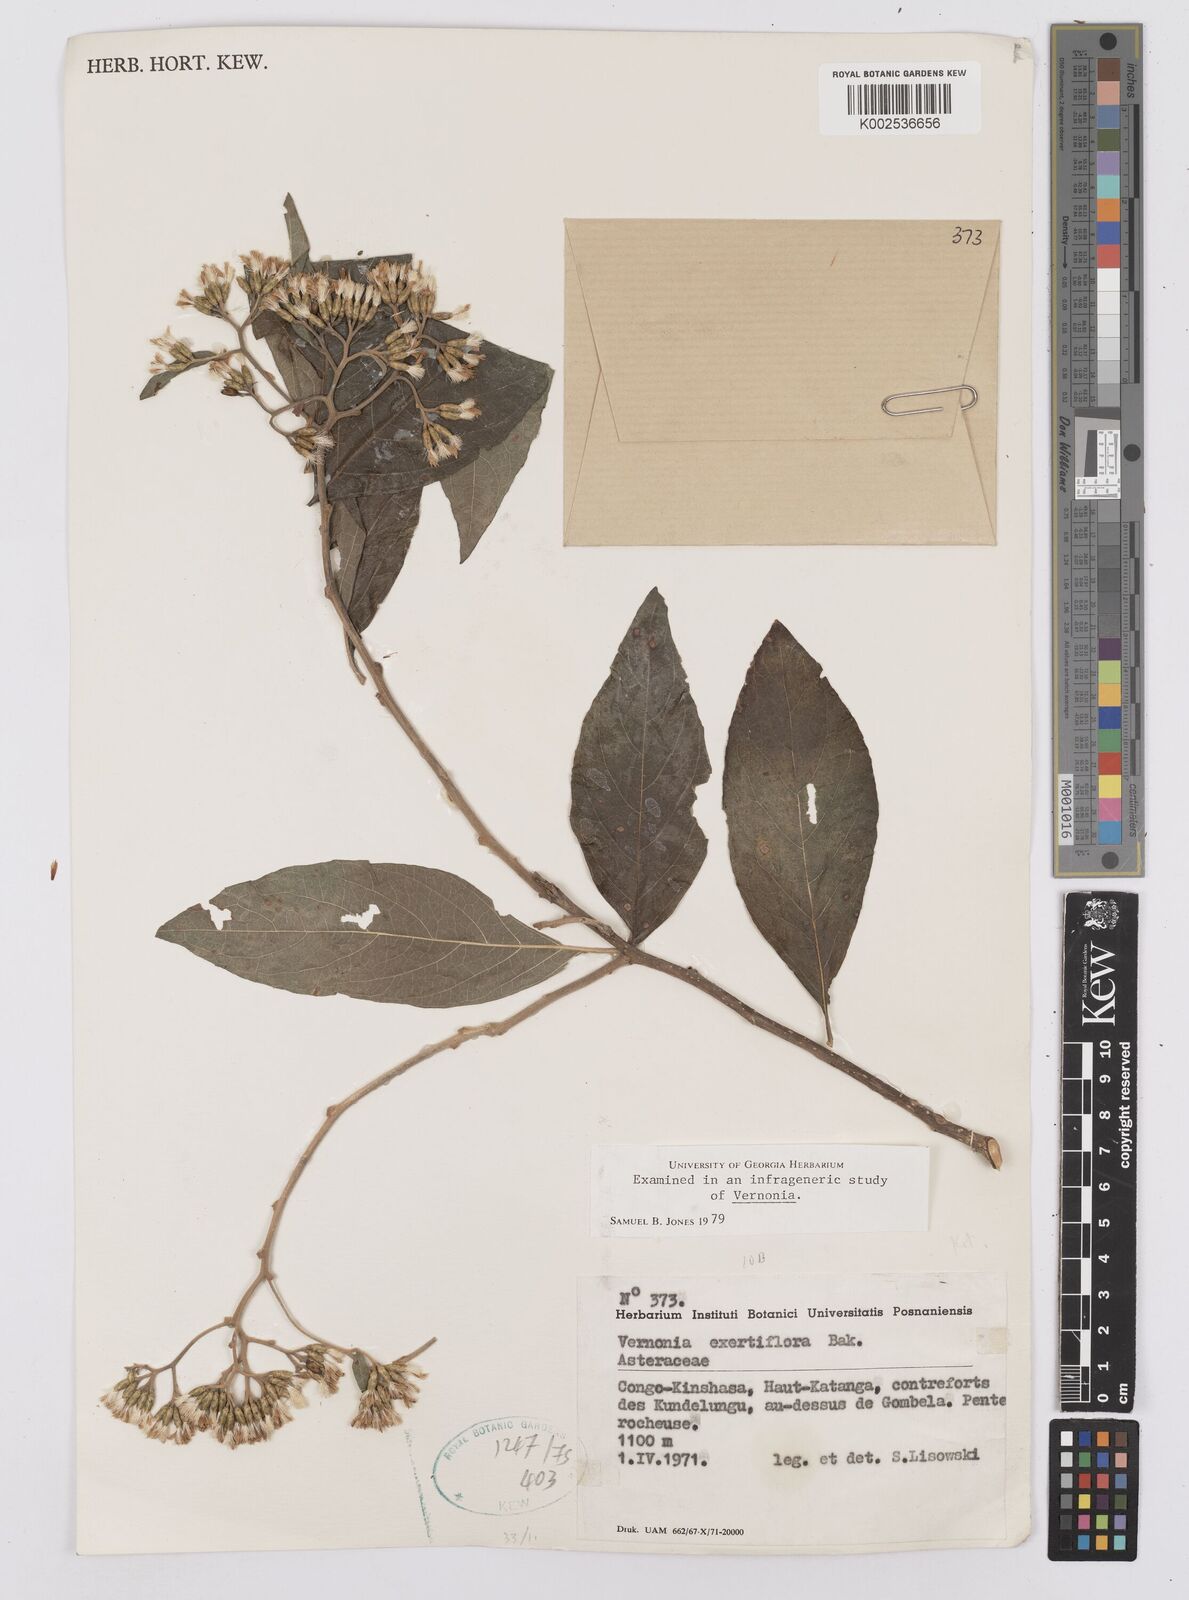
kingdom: Plantae
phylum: Tracheophyta
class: Magnoliopsida
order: Asterales
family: Asteraceae
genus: Gymnanthemum
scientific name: Gymnanthemum exsertiflorum
